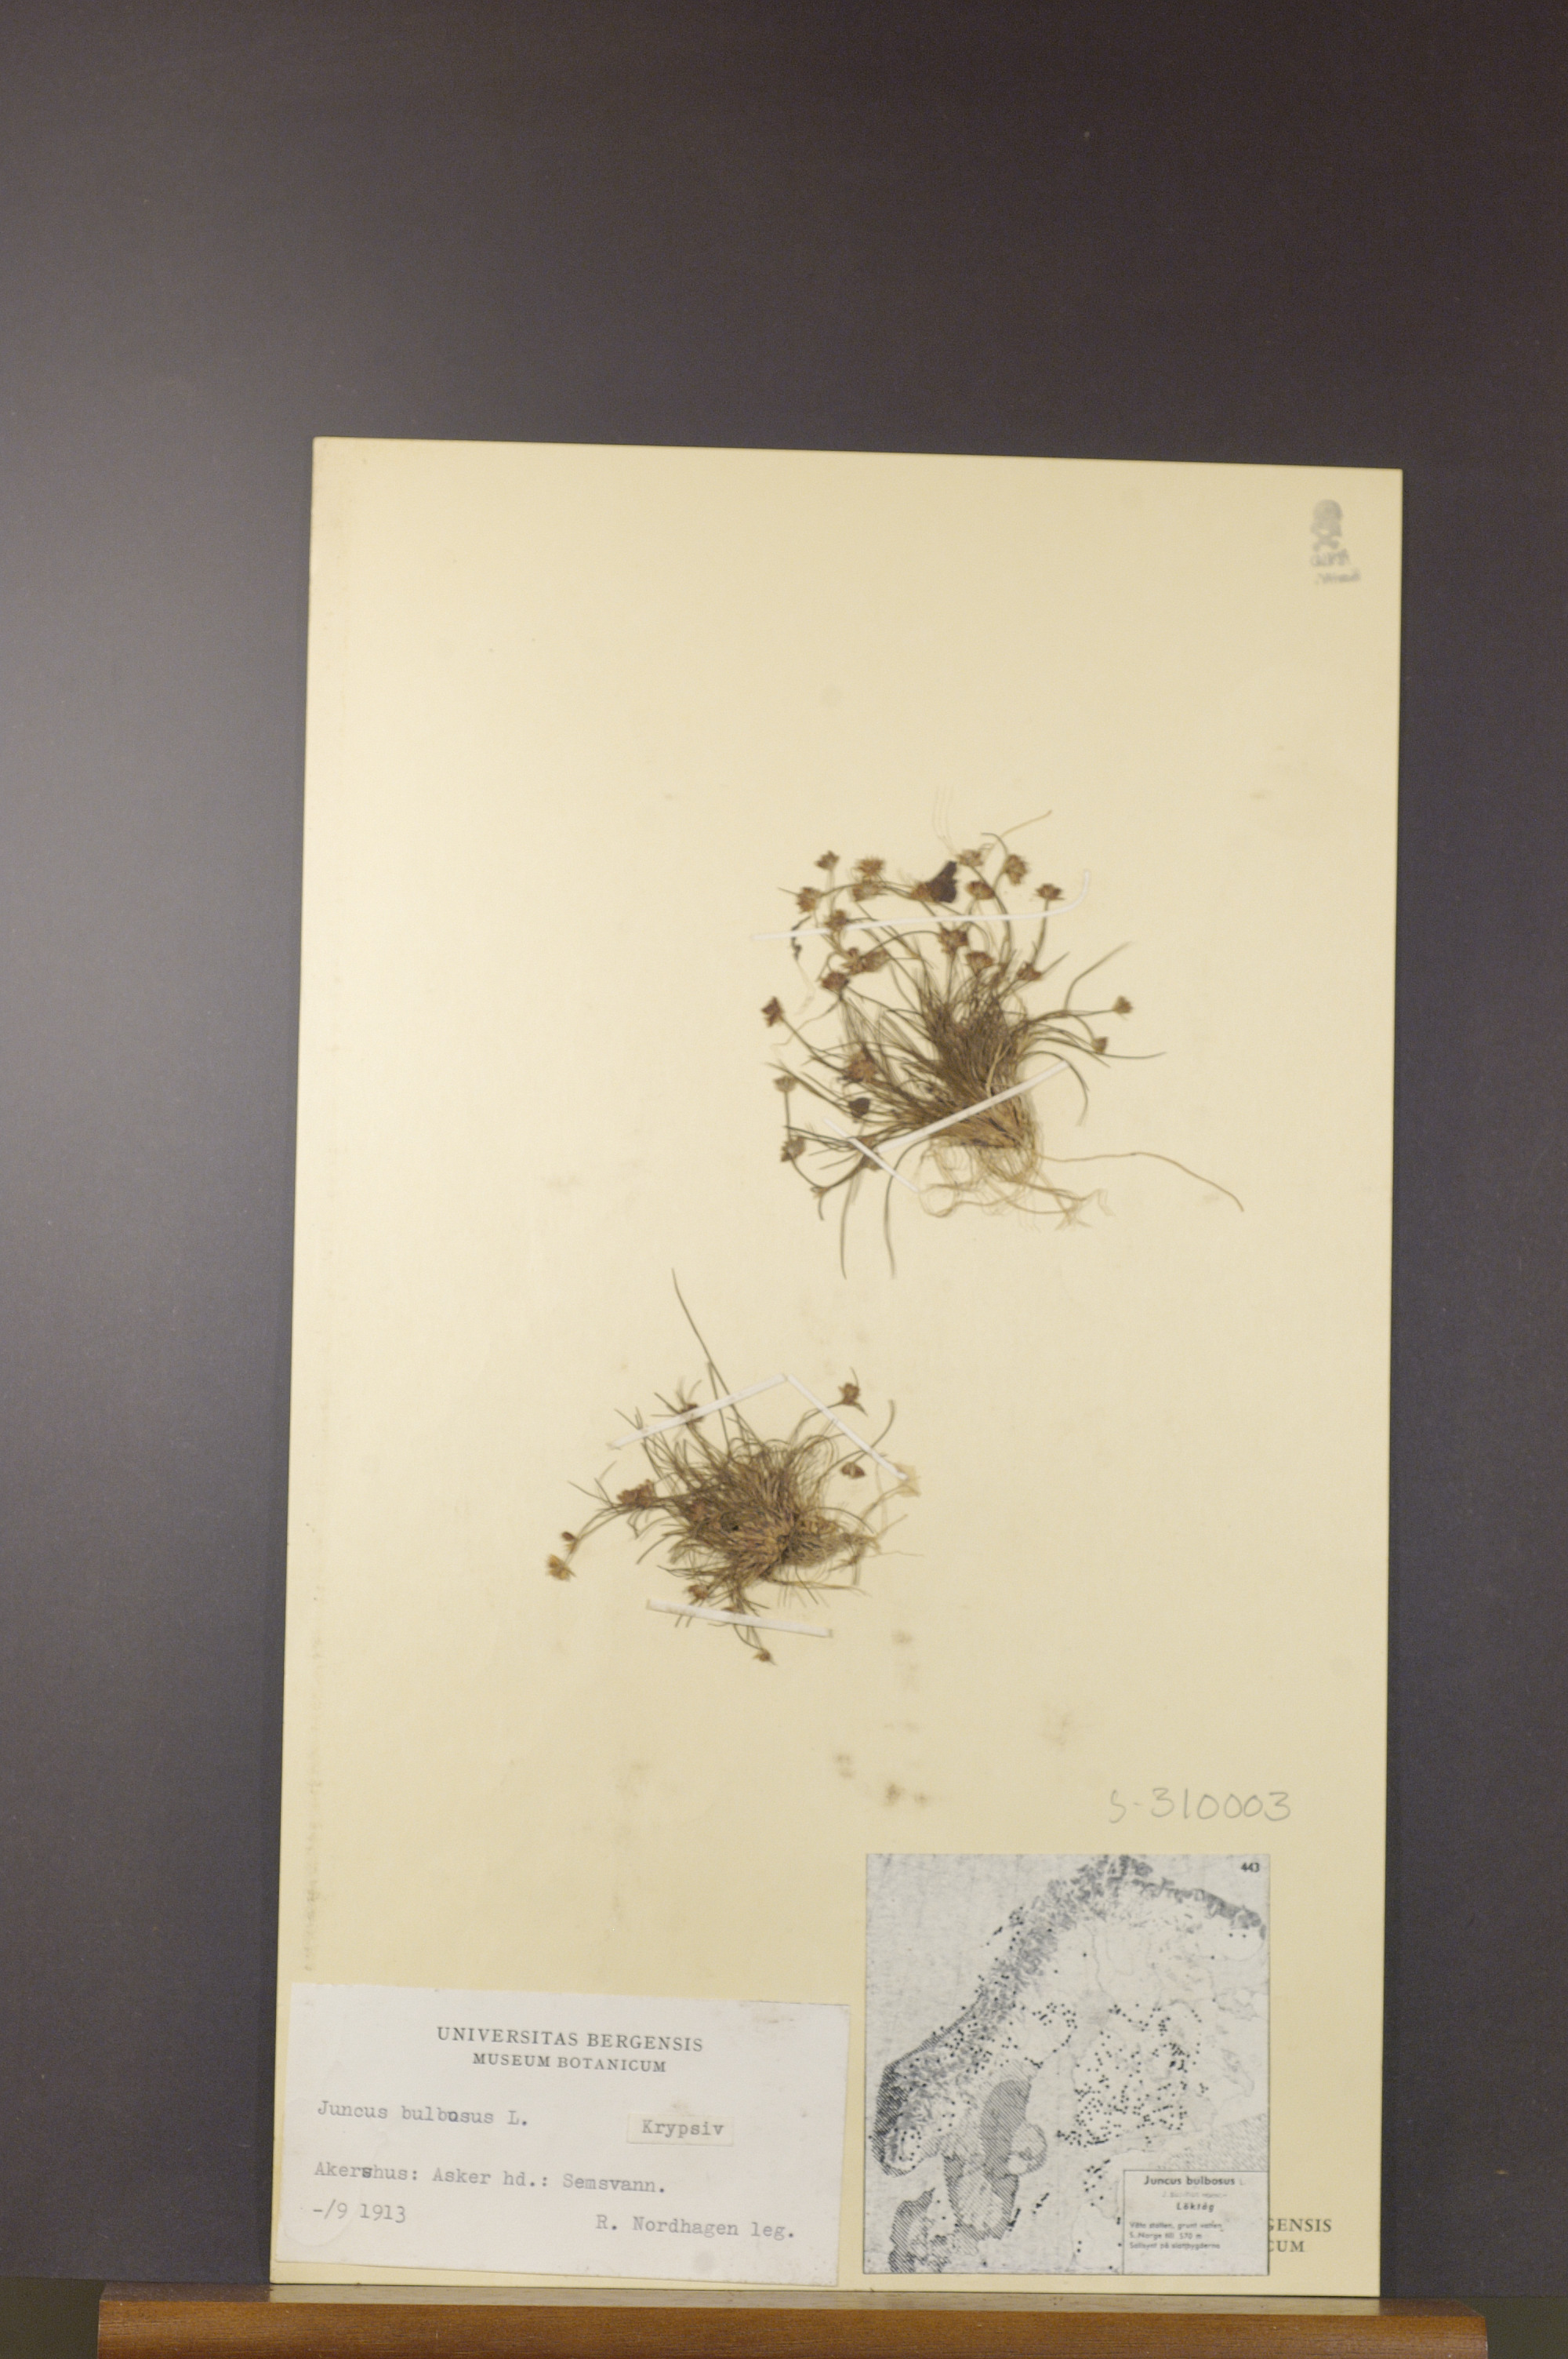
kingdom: Plantae
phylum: Tracheophyta
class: Liliopsida
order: Poales
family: Juncaceae
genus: Juncus
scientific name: Juncus bulbosus
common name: Bulbous rush
